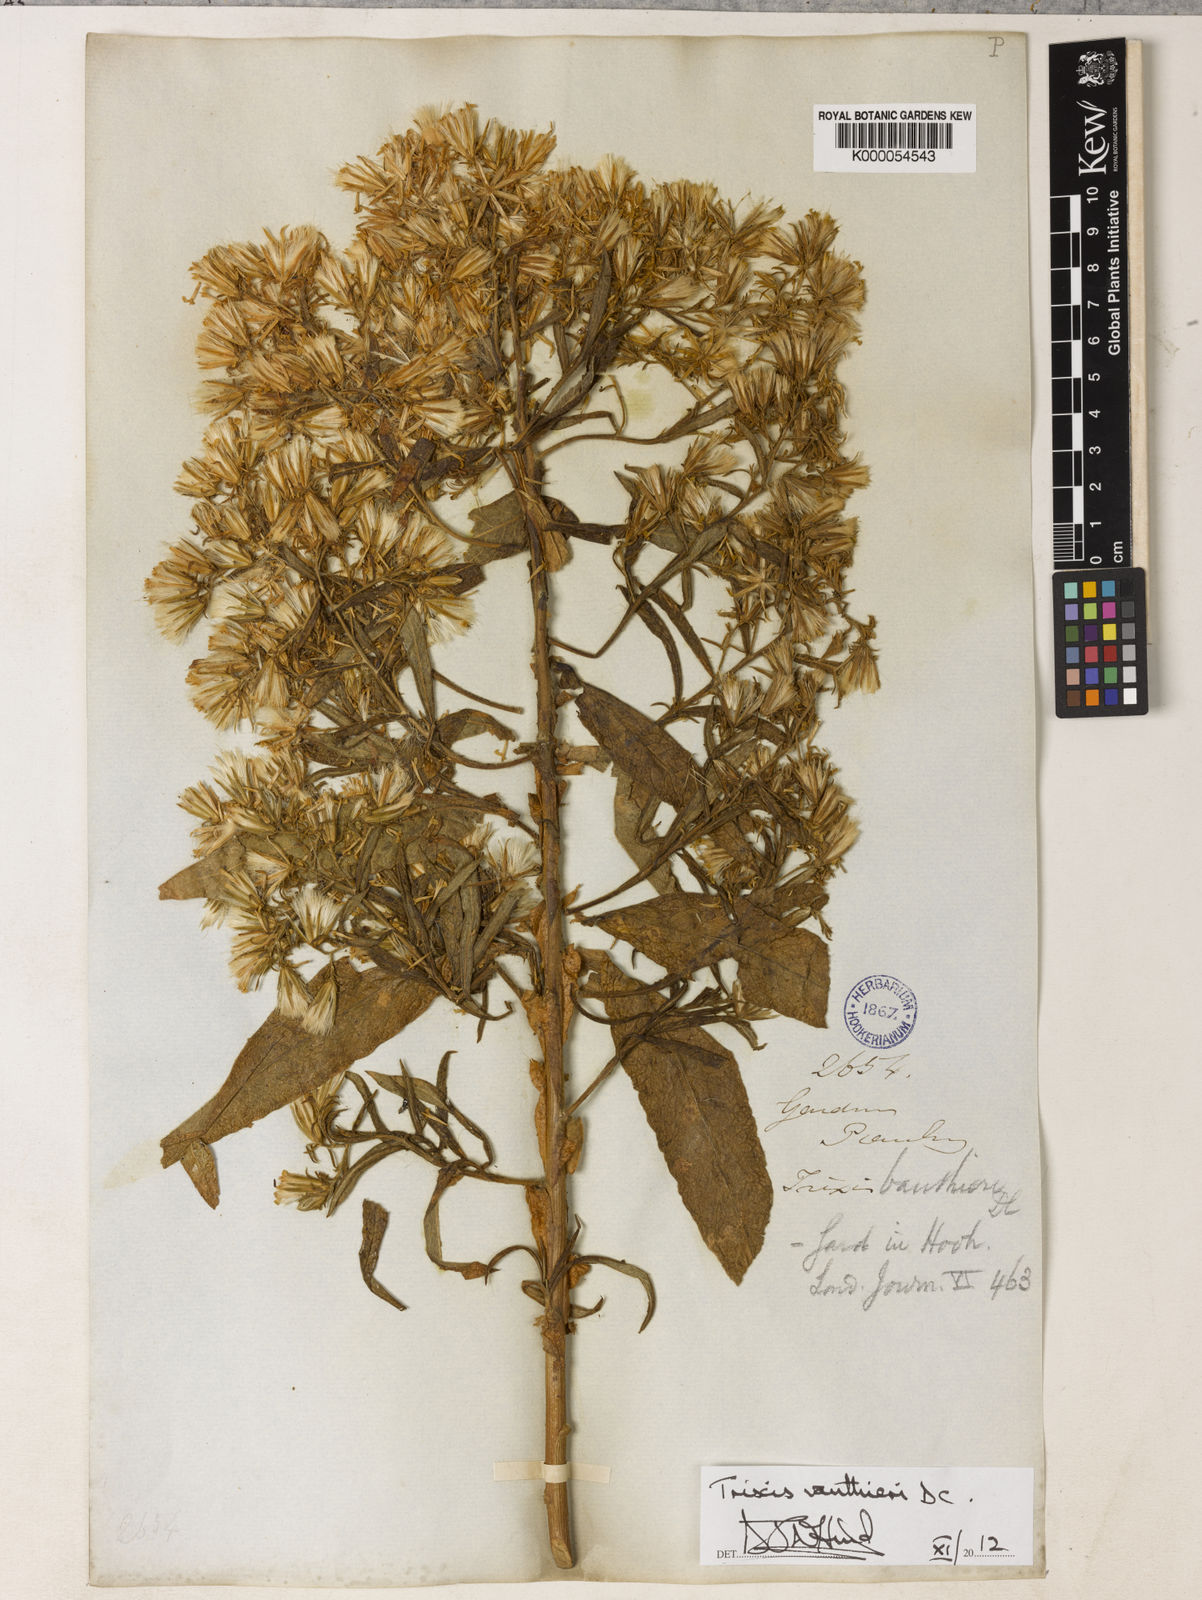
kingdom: Plantae
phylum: Tracheophyta
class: Magnoliopsida
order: Asterales
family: Asteraceae
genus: Trixis
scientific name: Trixis vauthieri
